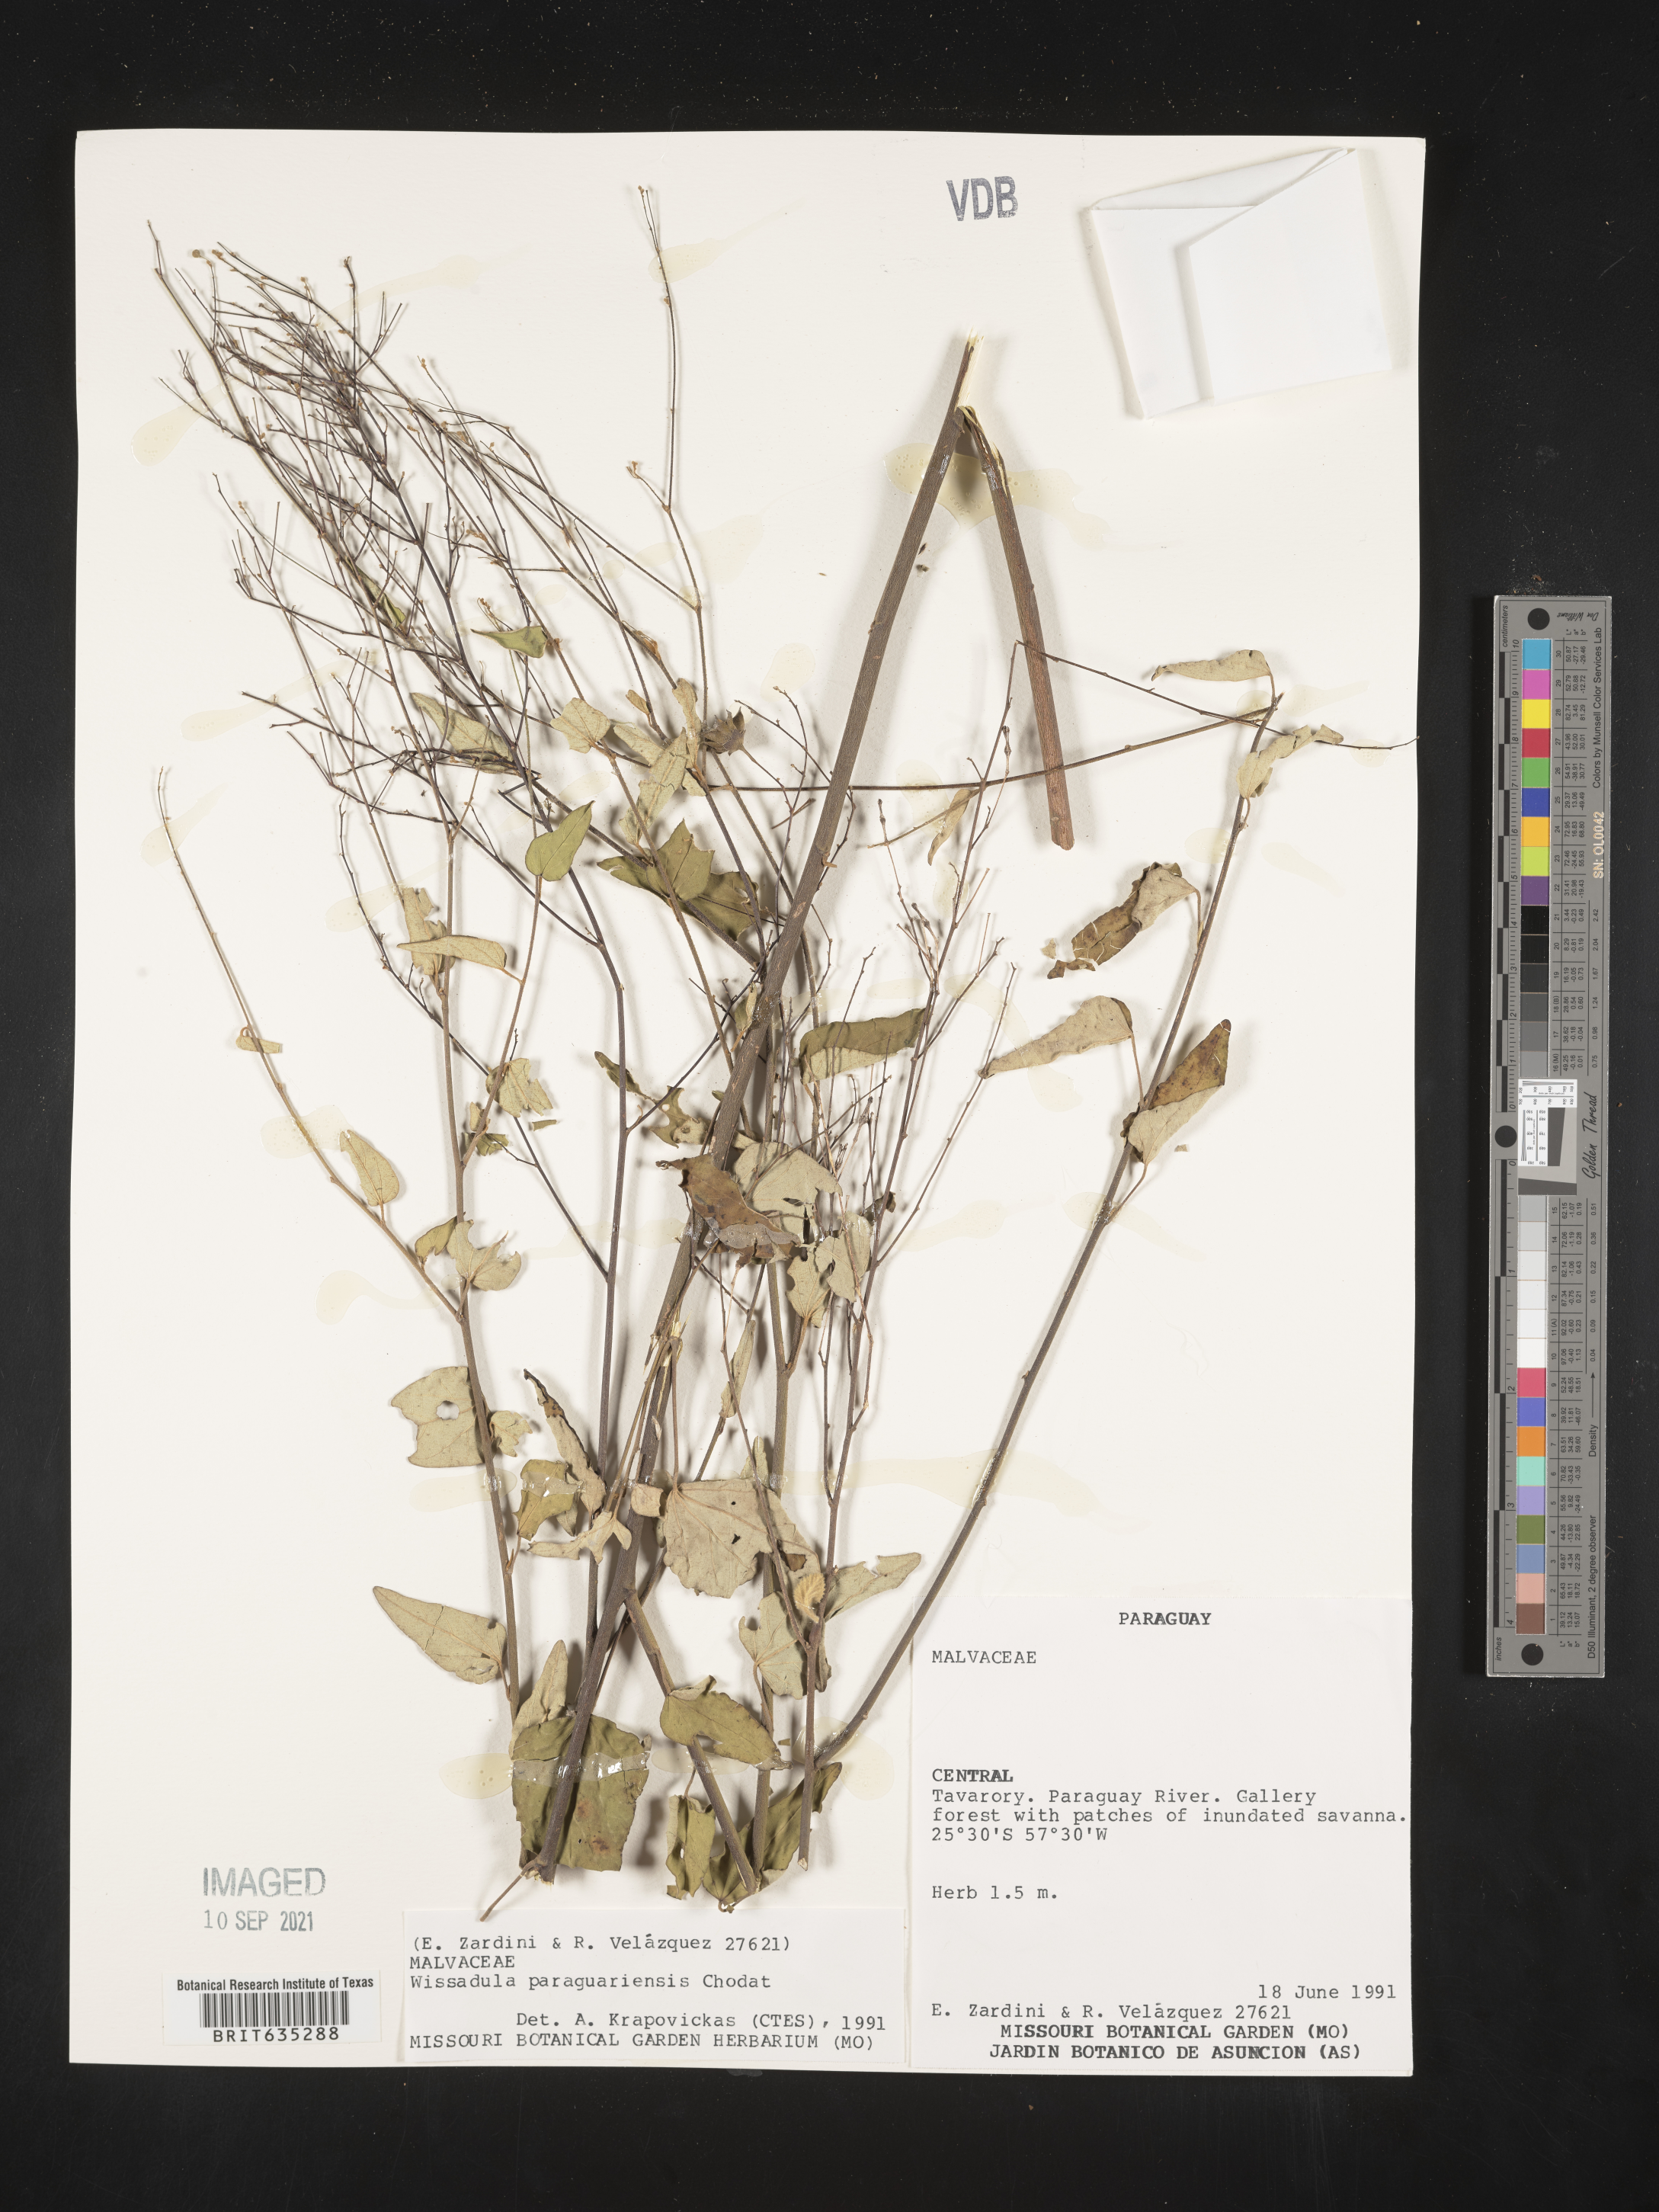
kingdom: Plantae
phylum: Tracheophyta
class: Magnoliopsida
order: Malvales
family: Malvaceae
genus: Wissadula
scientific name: Wissadula
